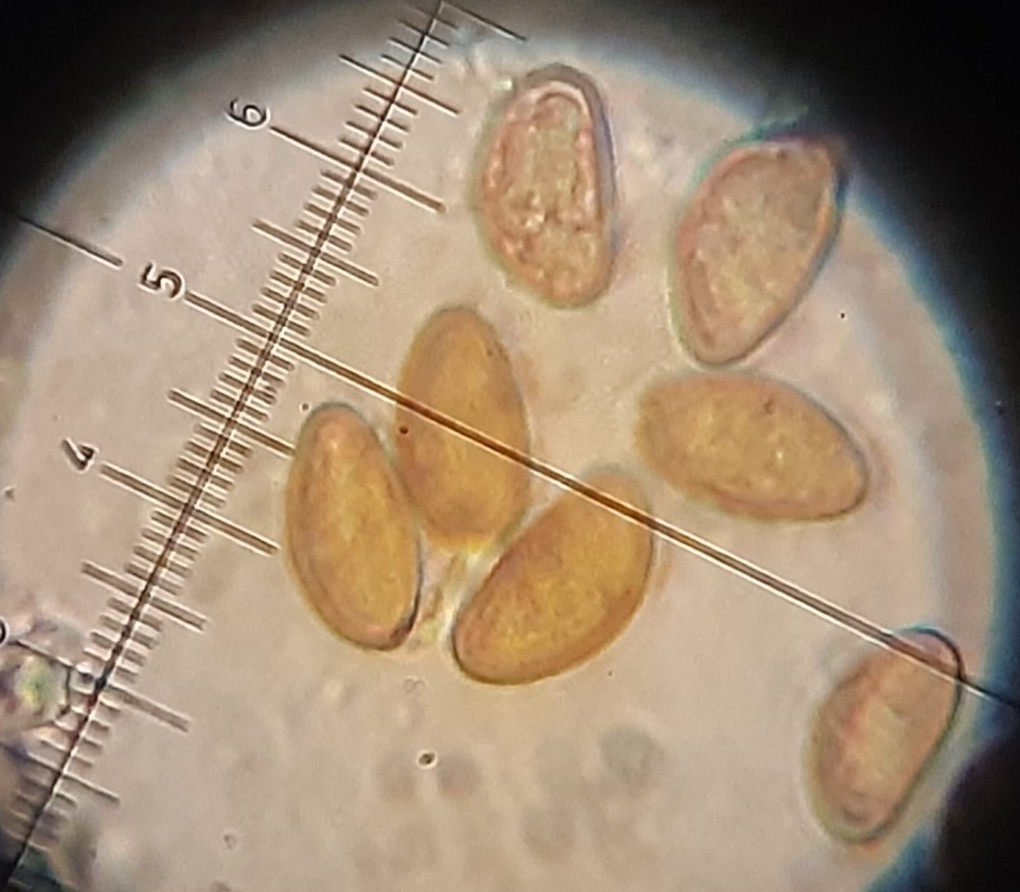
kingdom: Fungi
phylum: Basidiomycota
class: Agaricomycetes
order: Agaricales
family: Inocybaceae
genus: Inosperma
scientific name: Inosperma
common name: Trævlhat
